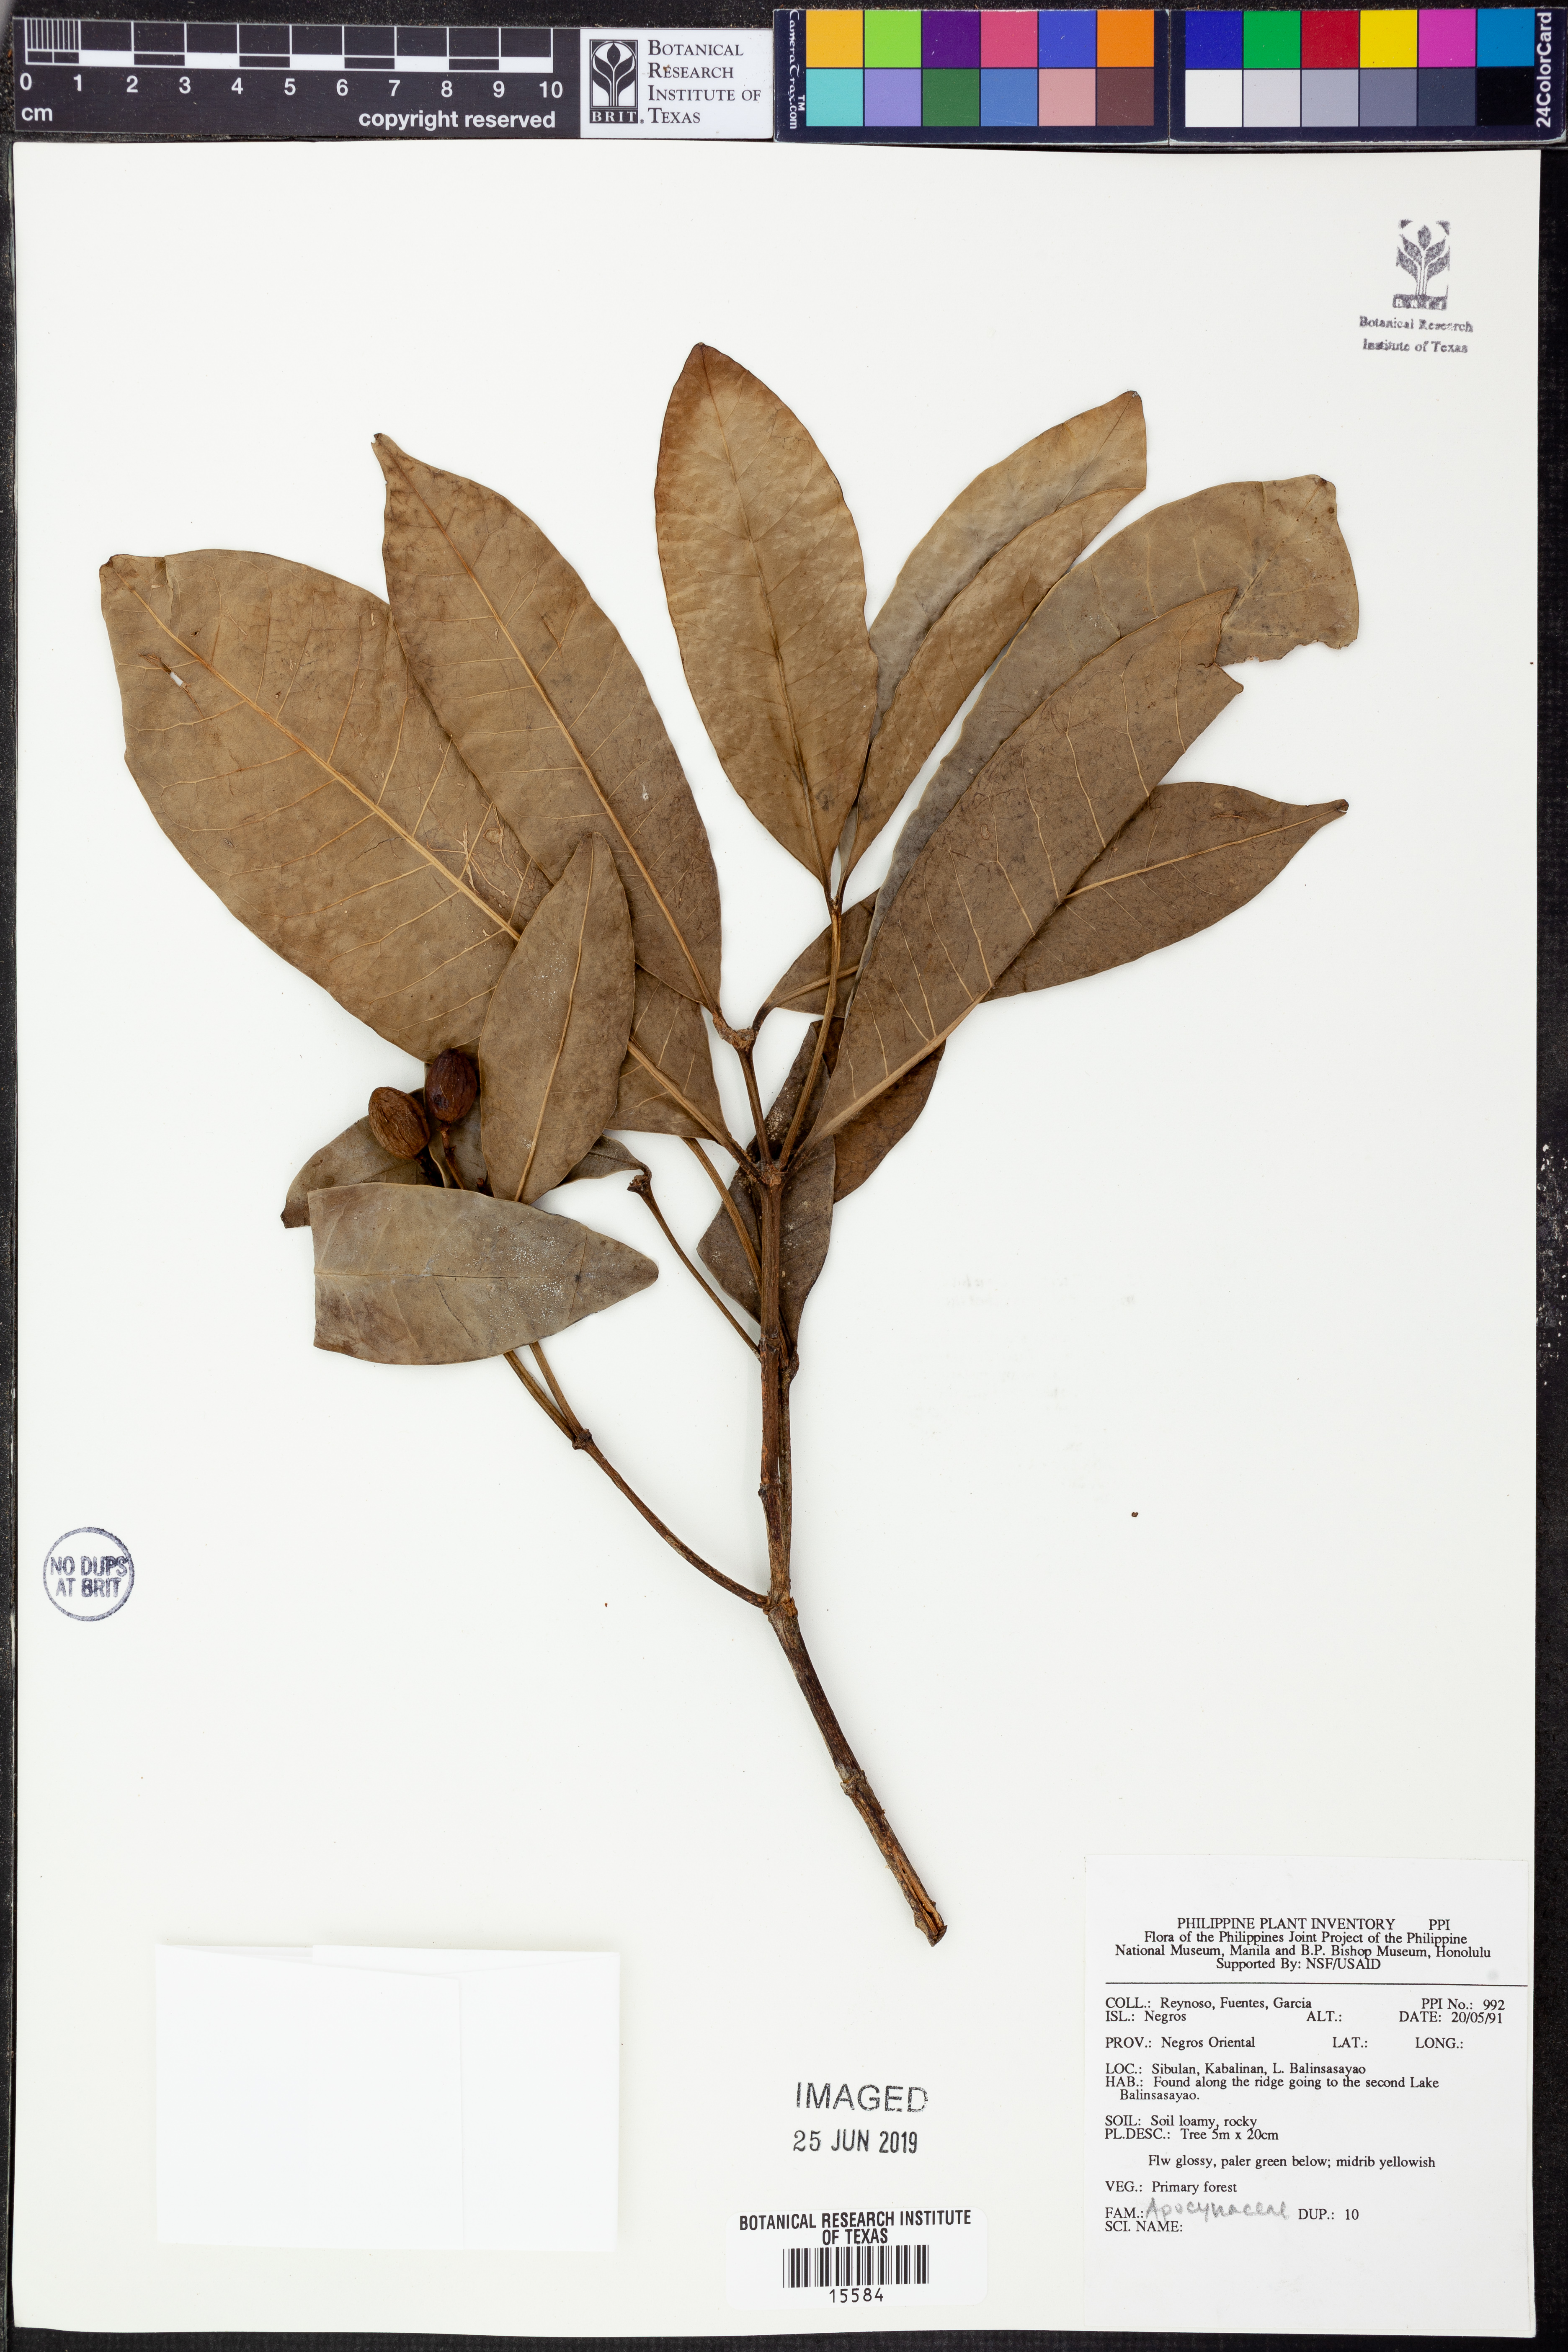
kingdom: Plantae
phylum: Tracheophyta
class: Magnoliopsida
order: Gentianales
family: Apocynaceae
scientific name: Apocynaceae
